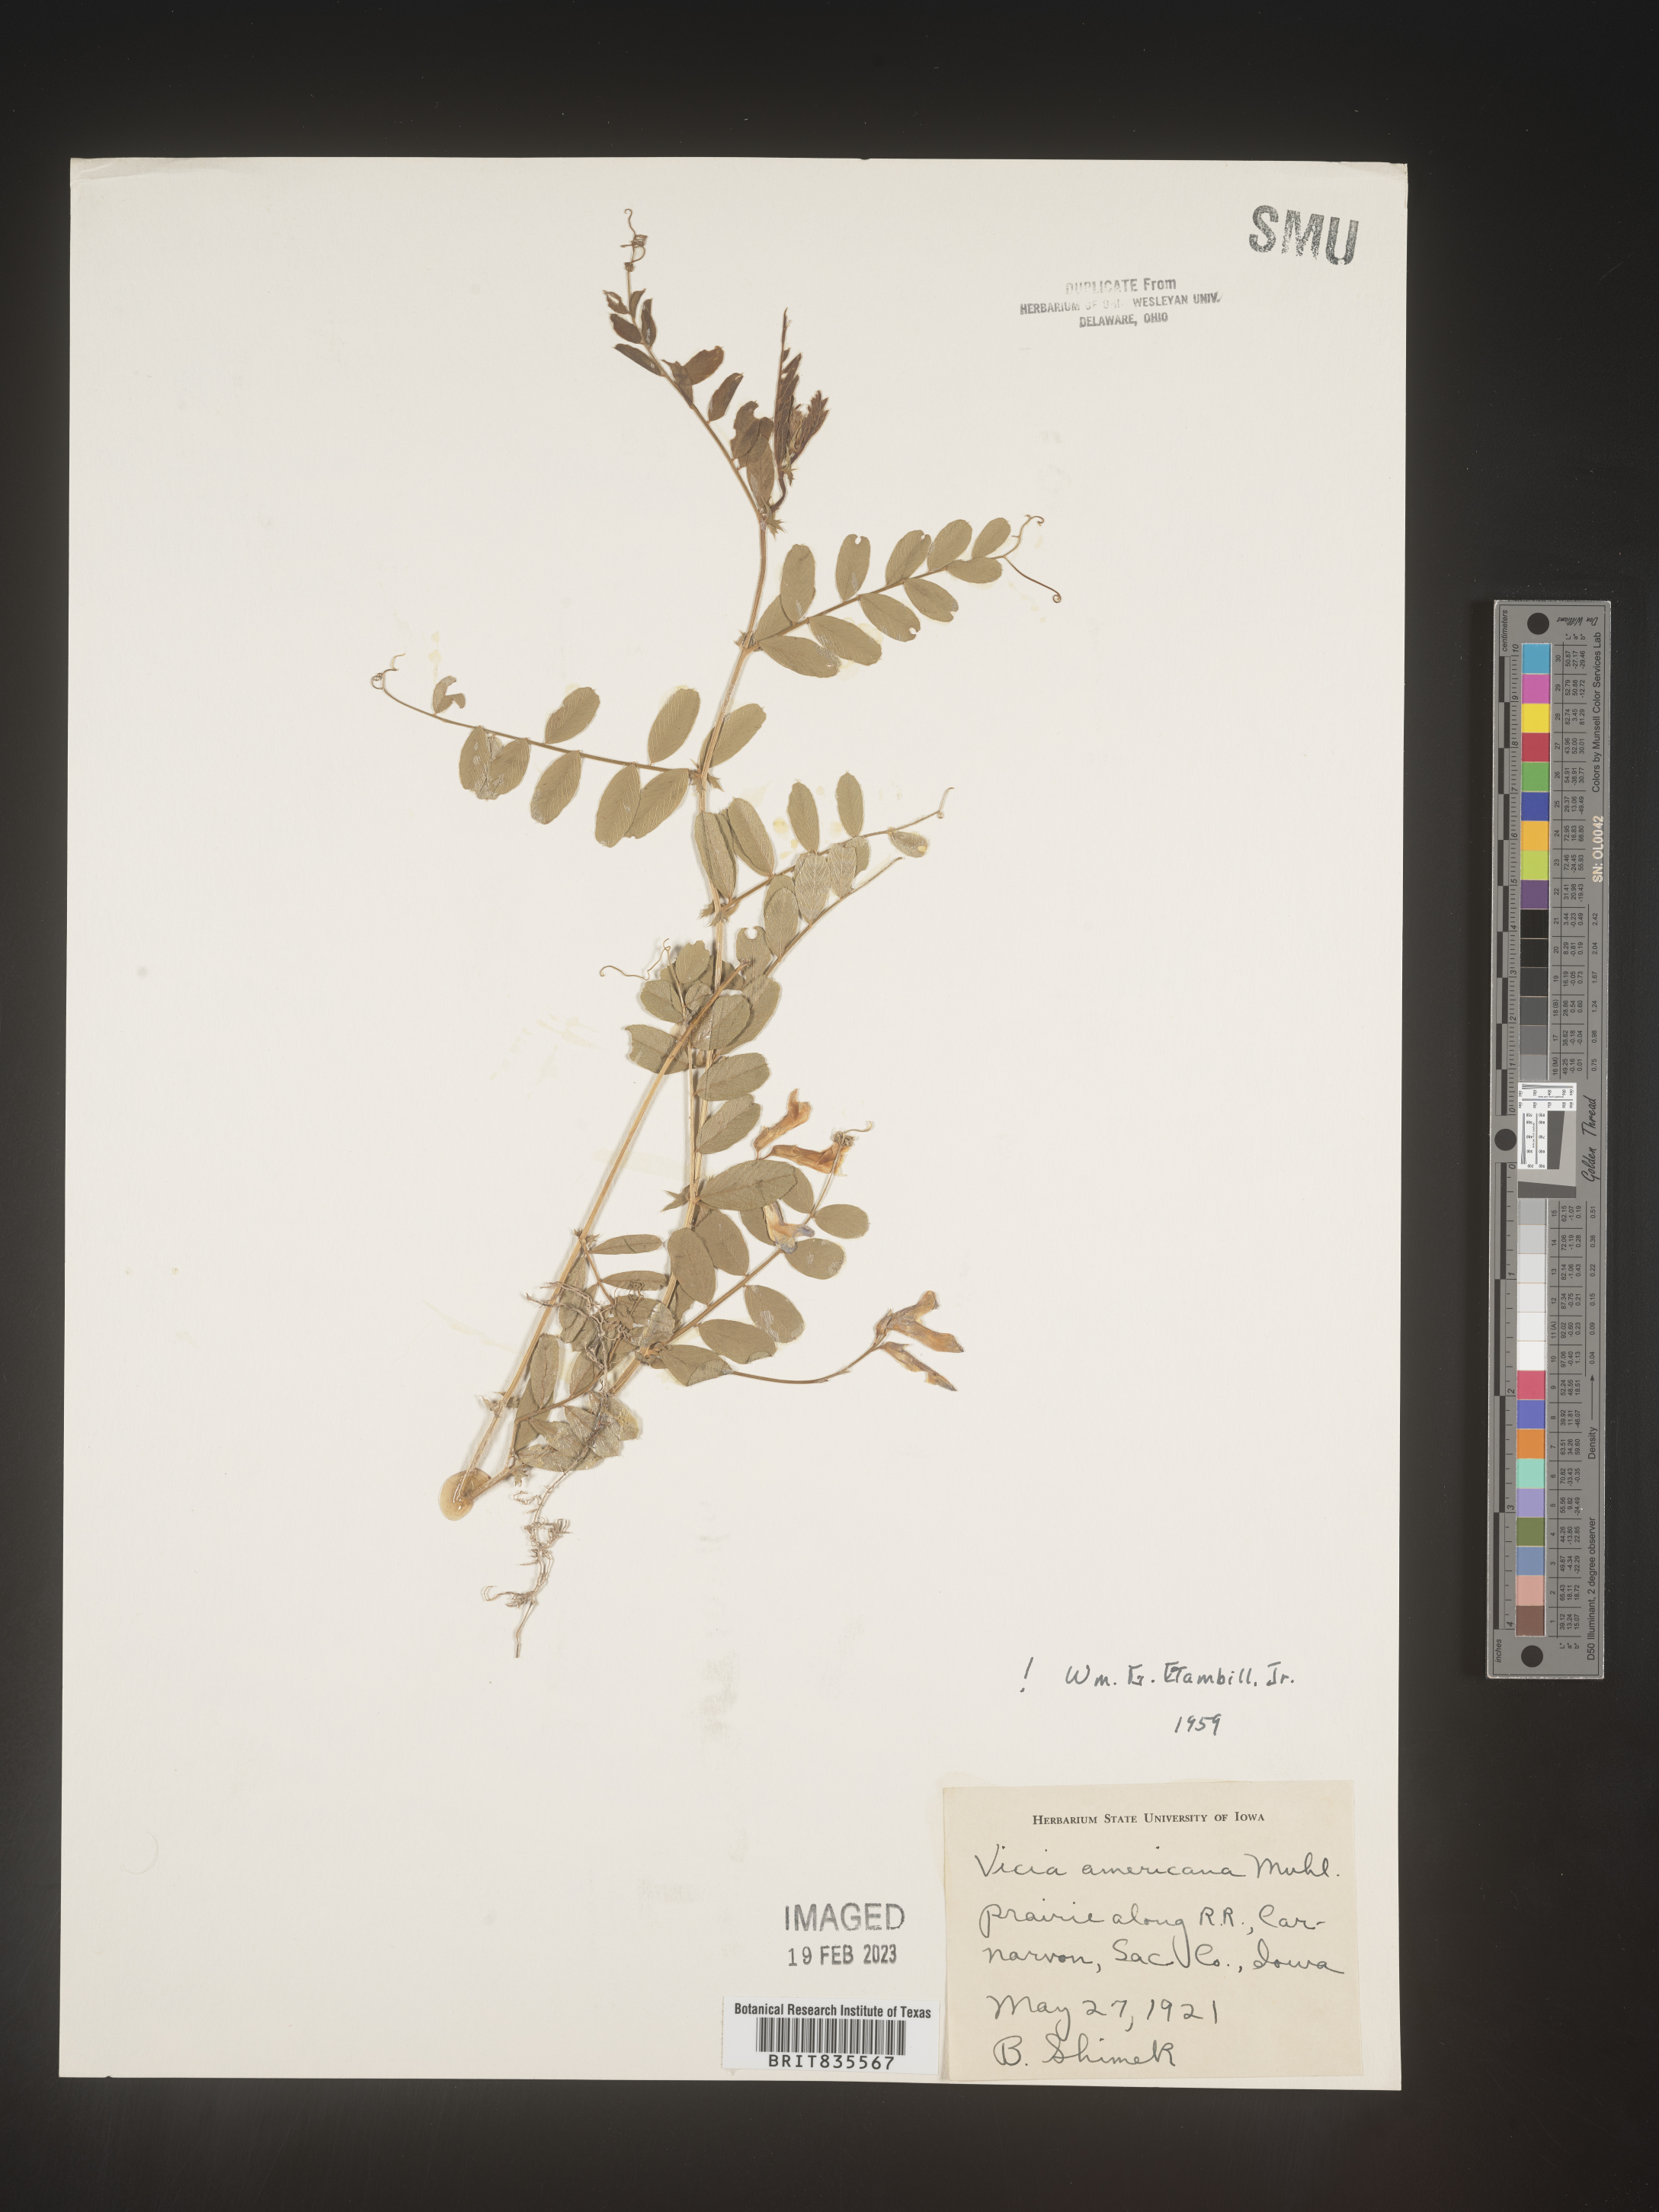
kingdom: Plantae
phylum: Tracheophyta
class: Magnoliopsida
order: Fabales
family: Fabaceae
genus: Vicia
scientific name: Vicia americana
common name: American vetch
